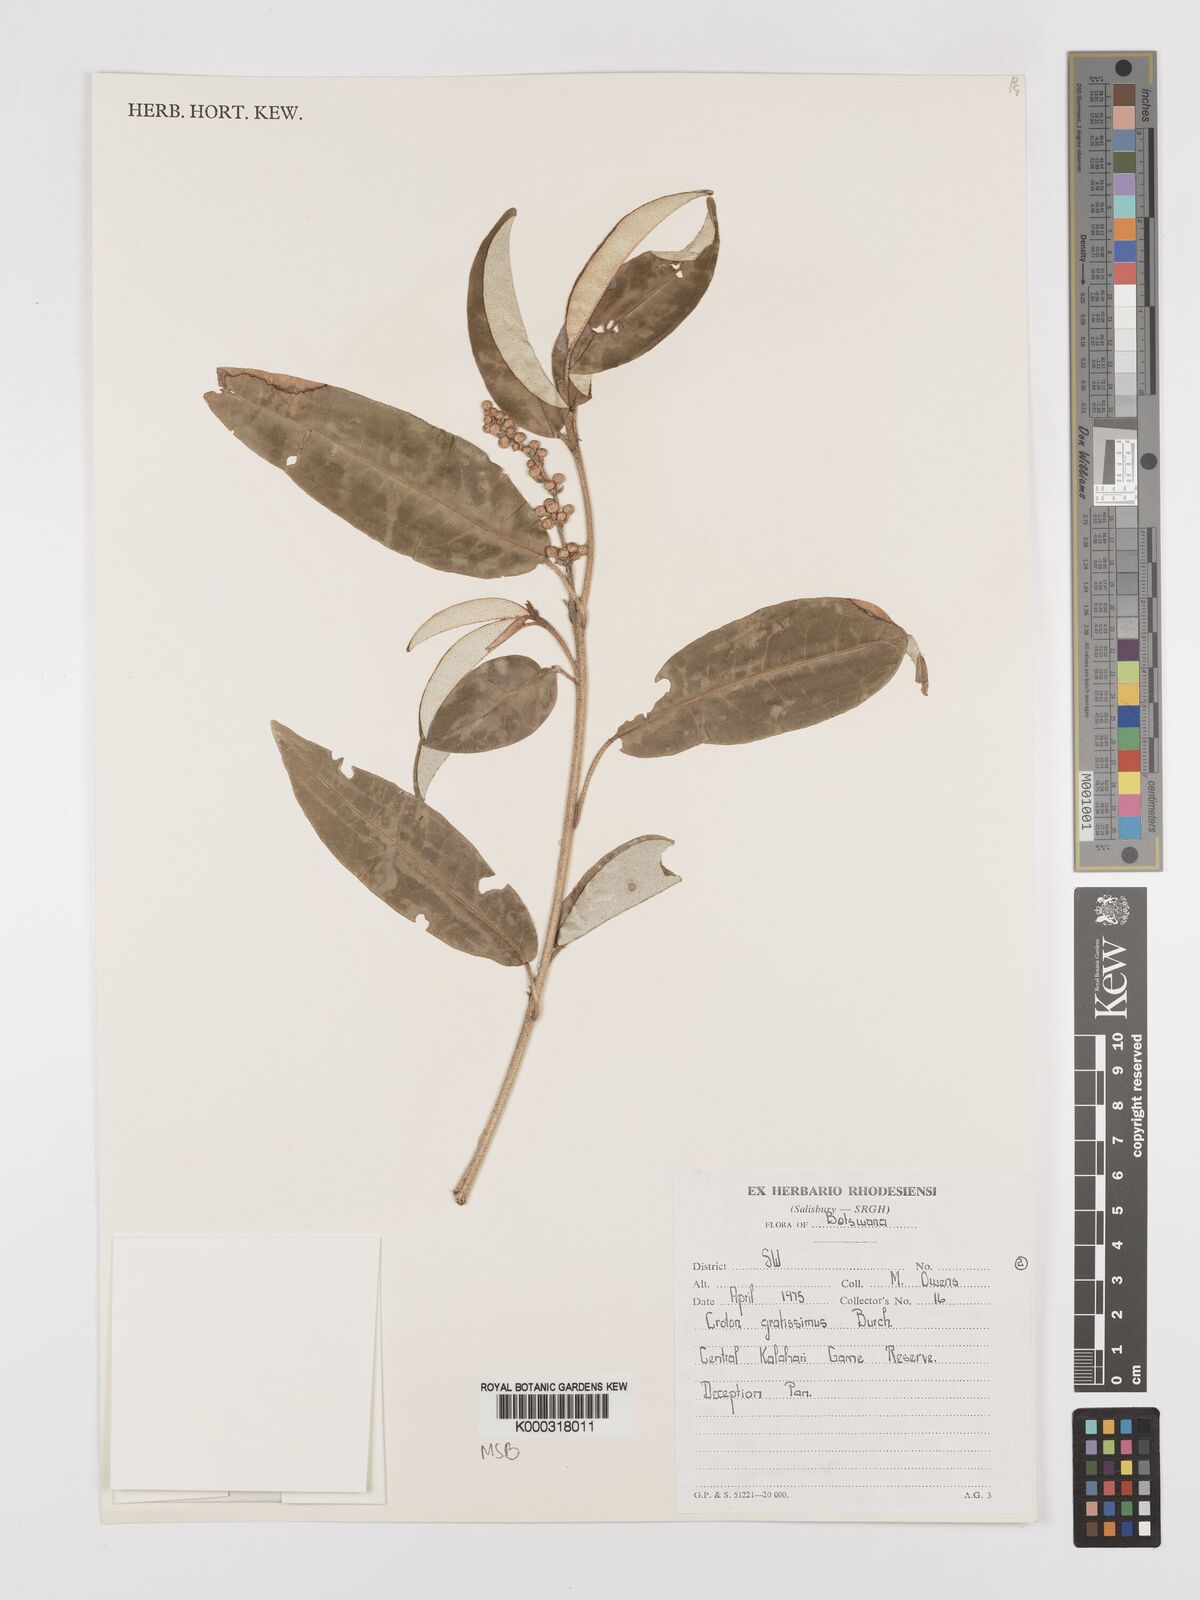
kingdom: Plantae
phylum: Tracheophyta
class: Magnoliopsida
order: Malpighiales
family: Euphorbiaceae
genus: Croton
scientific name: Croton gratissimus
